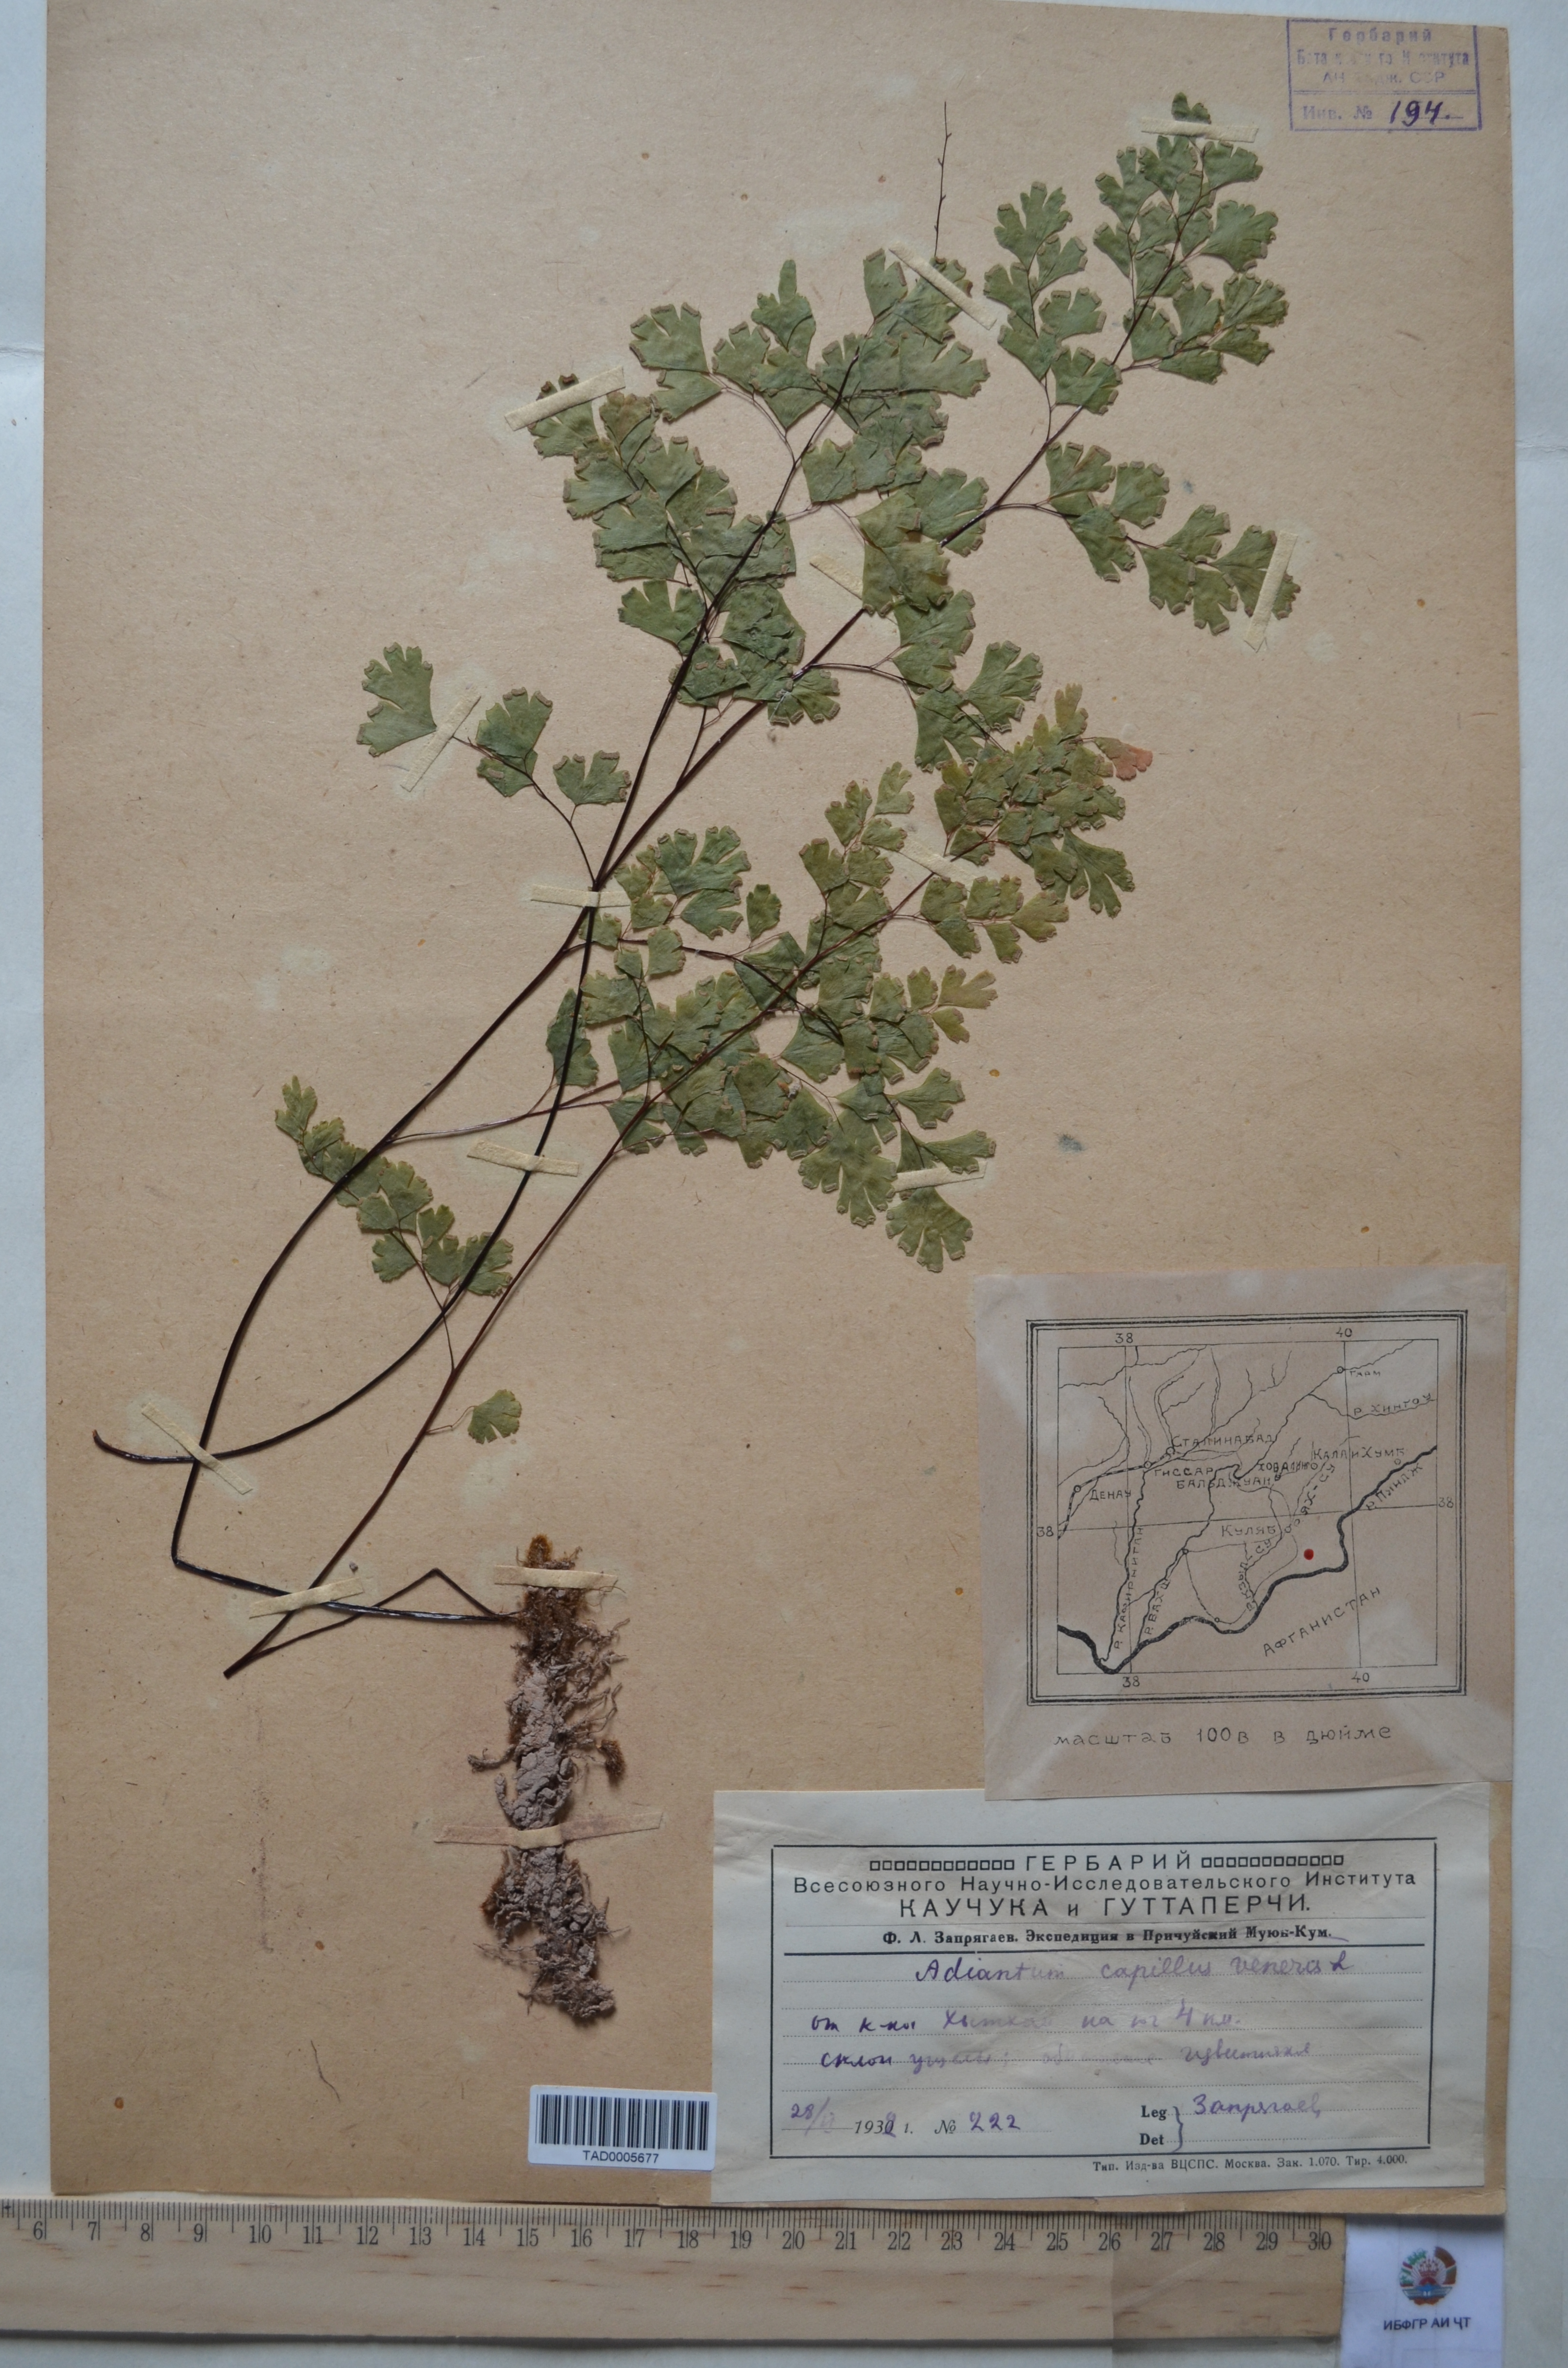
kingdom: Plantae
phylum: Tracheophyta
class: Polypodiopsida
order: Polypodiales
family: Pteridaceae
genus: Adiantum
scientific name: Adiantum capillus-veneris
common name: Maidenhair fern
